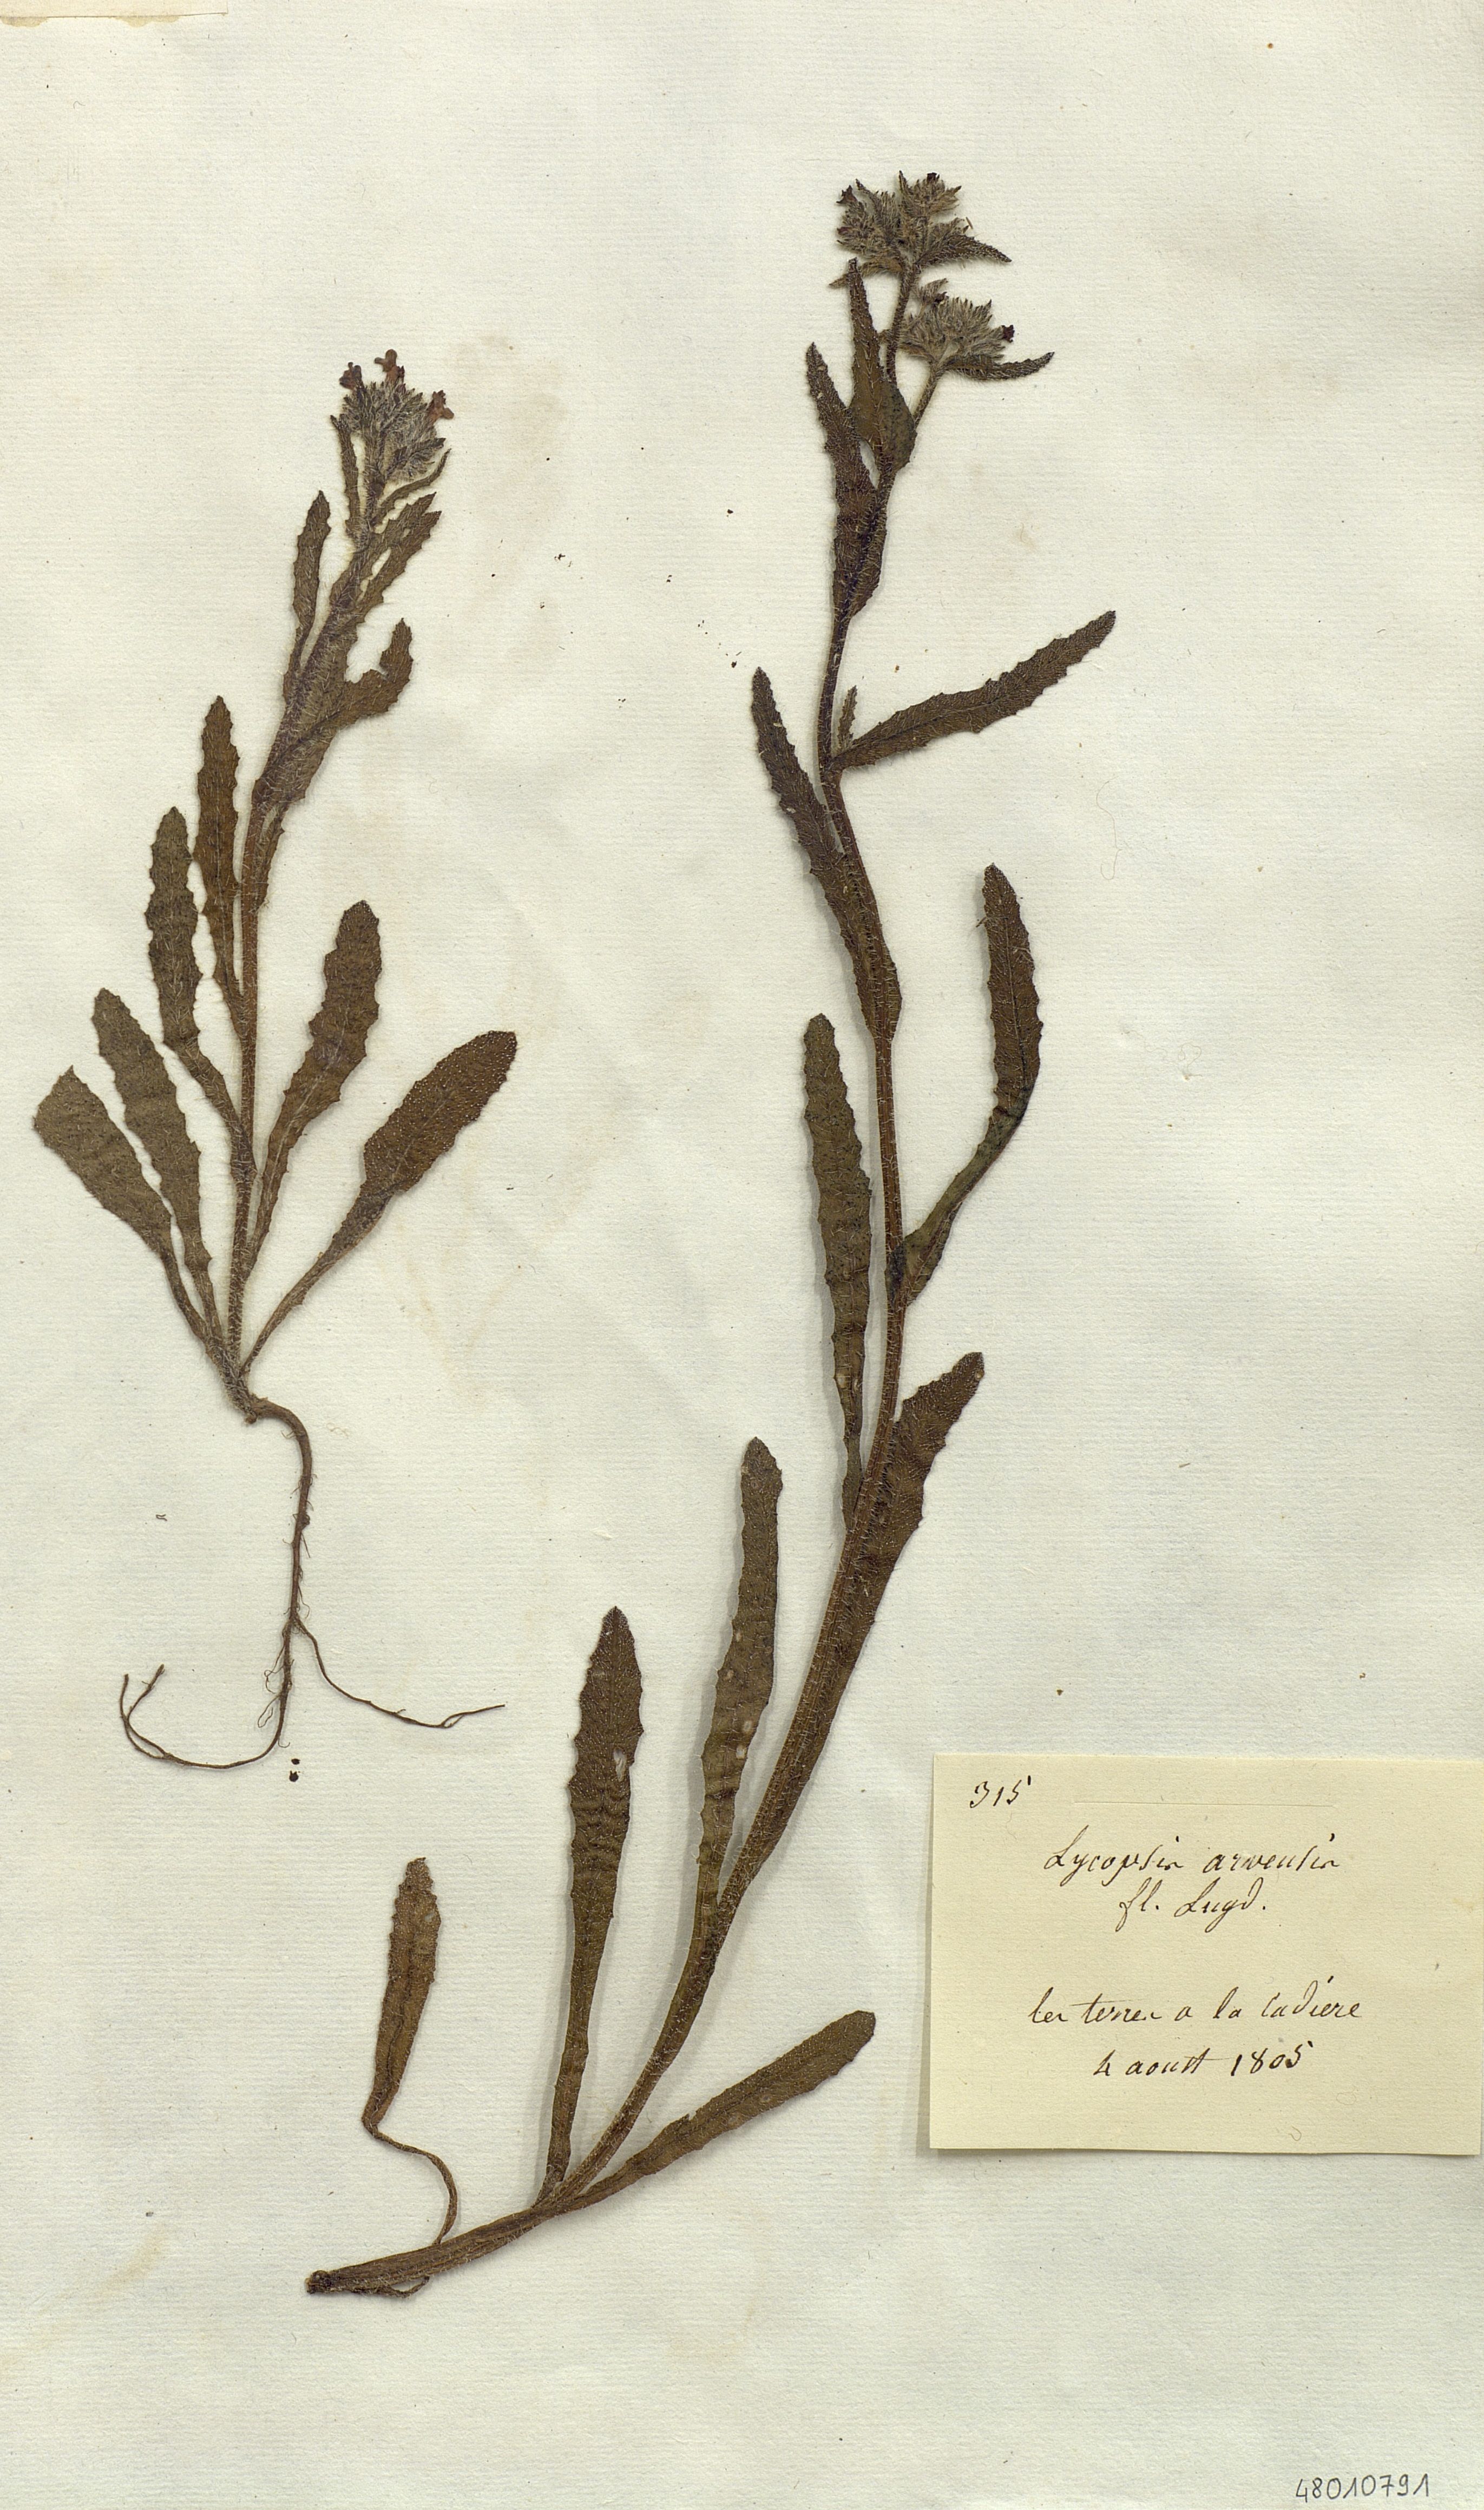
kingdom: Plantae
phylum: Tracheophyta
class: Magnoliopsida
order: Boraginales
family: Boraginaceae
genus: Lycopsis
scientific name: Lycopsis arvensis
